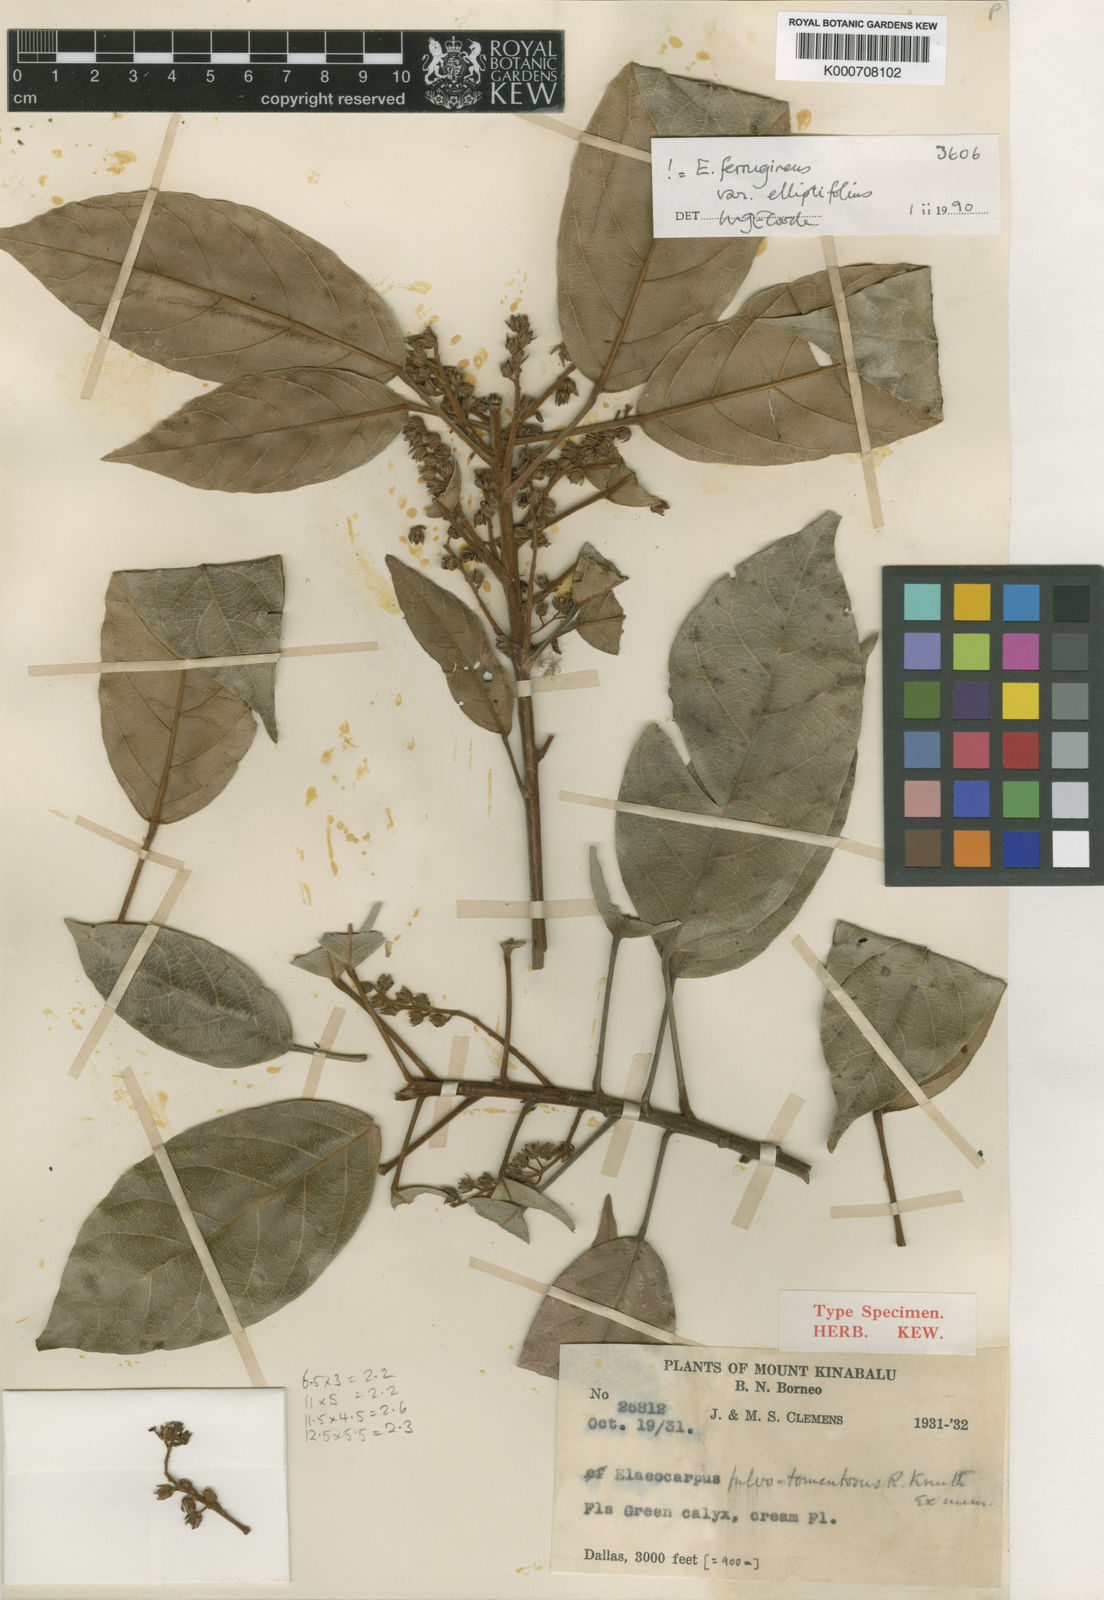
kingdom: Plantae
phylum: Tracheophyta
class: Magnoliopsida
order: Oxalidales
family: Elaeocarpaceae
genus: Elaeocarpus
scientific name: Elaeocarpus ferrugineus
